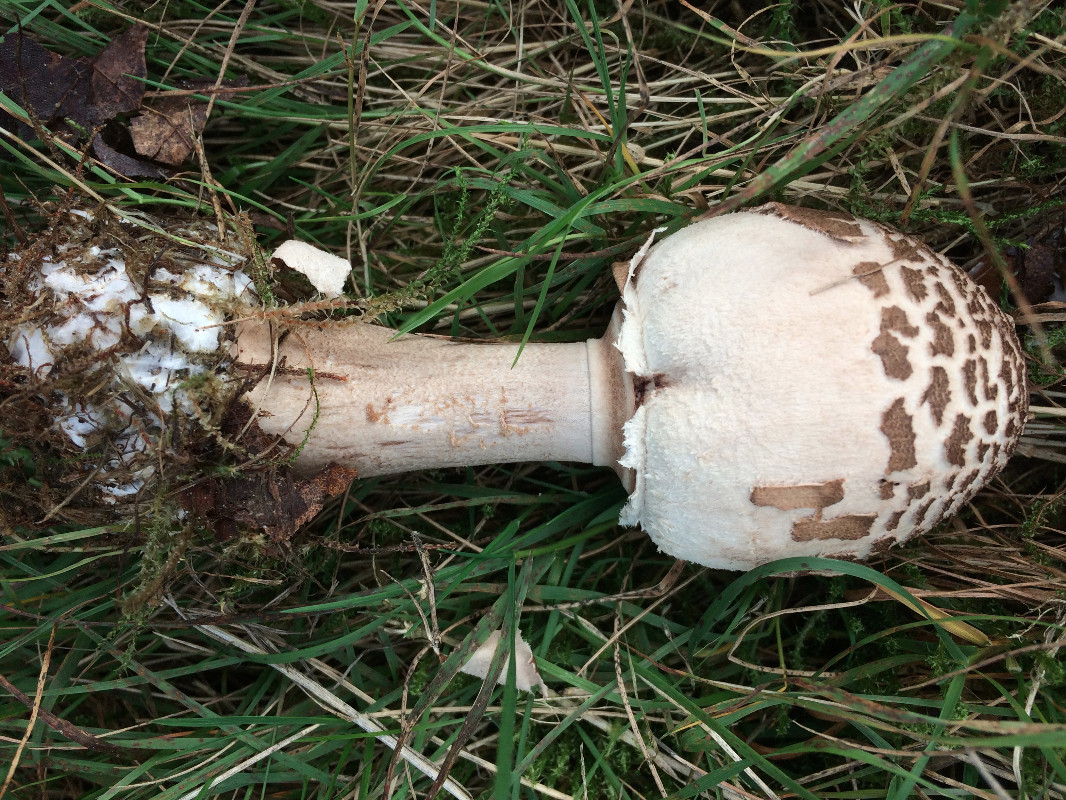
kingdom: Fungi
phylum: Basidiomycota
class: Agaricomycetes
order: Agaricales
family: Agaricaceae
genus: Macrolepiota
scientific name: Macrolepiota mastoidea
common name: puklet kæmpeparasolhat
